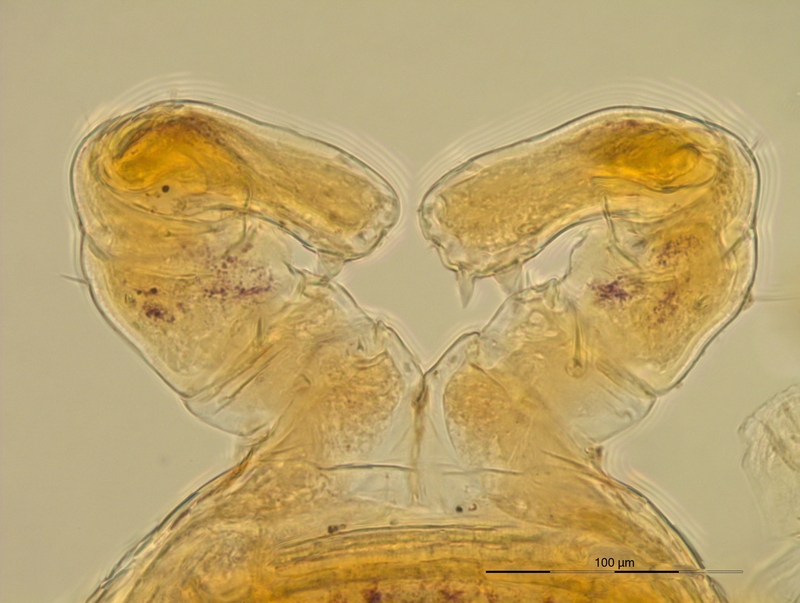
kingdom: Animalia
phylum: Arthropoda
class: Diplopoda
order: Julida
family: Blaniulidae
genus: Nopoiulus
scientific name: Nopoiulus palmatus
